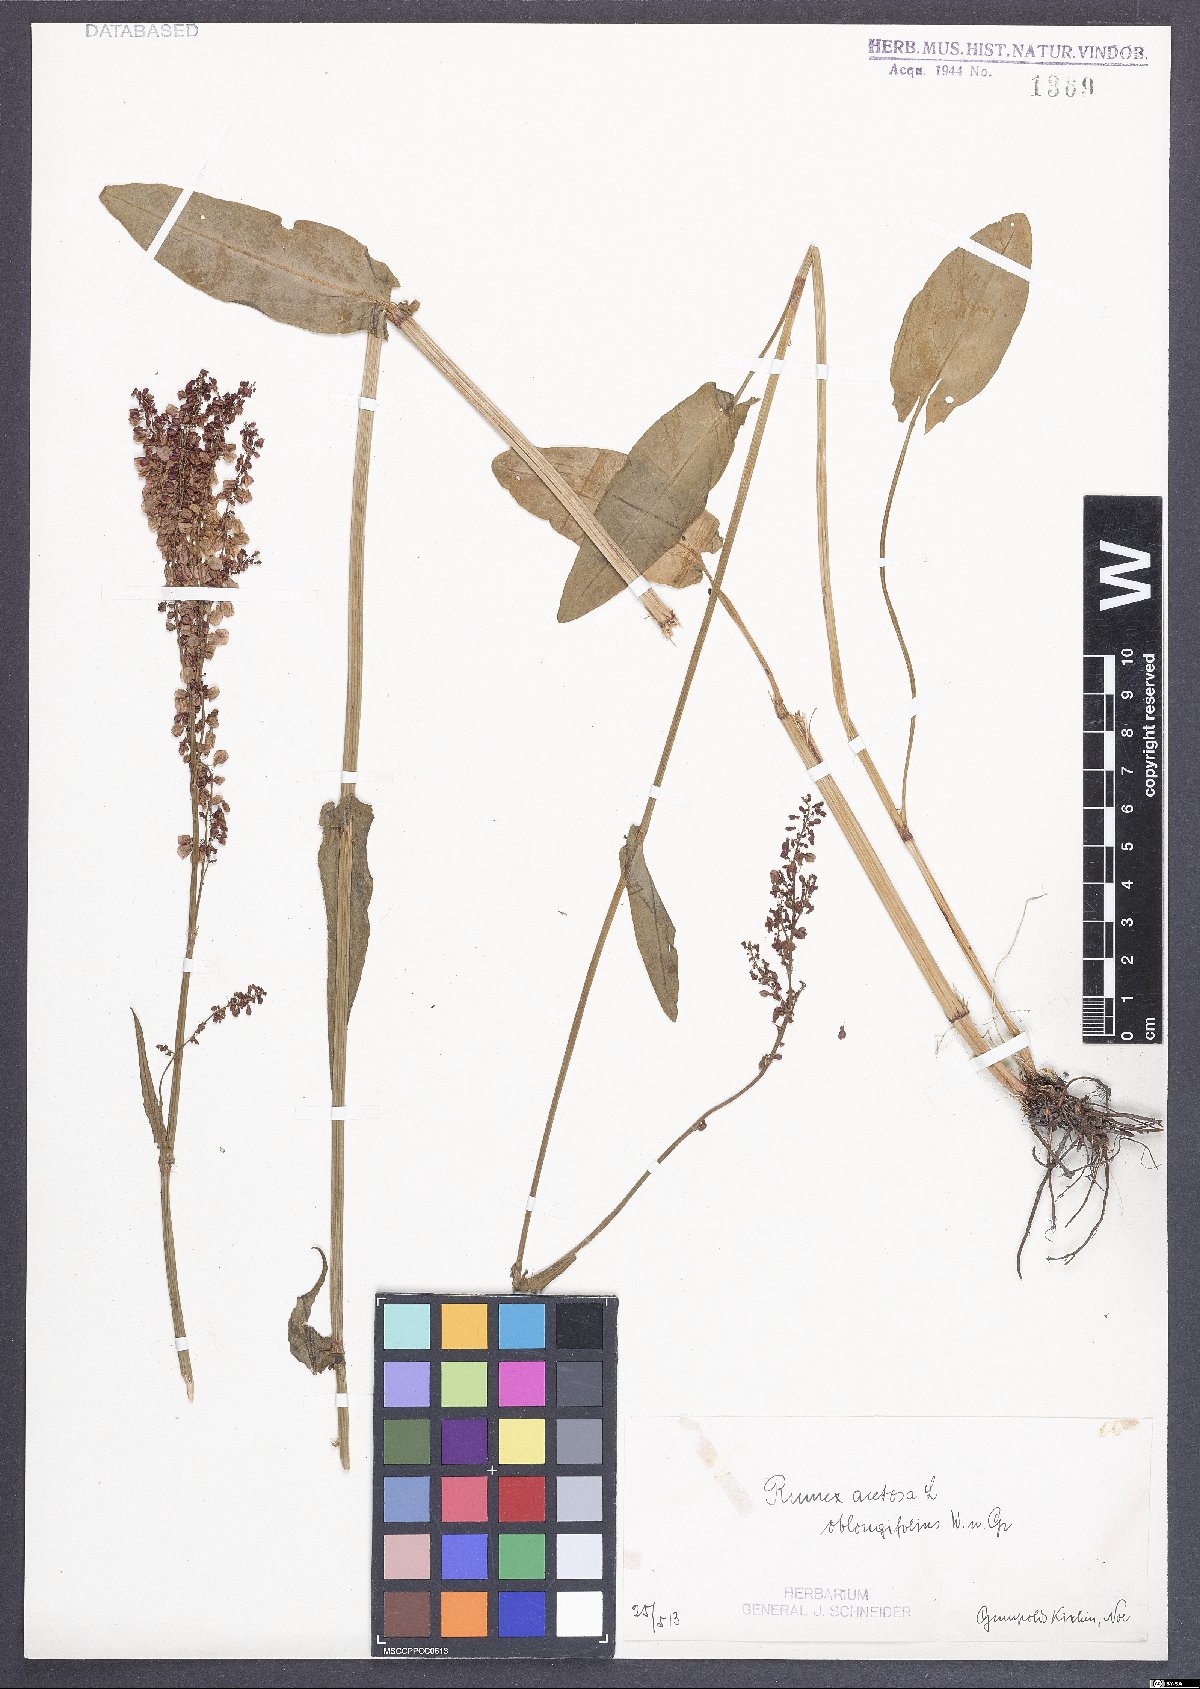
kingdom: Plantae
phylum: Tracheophyta
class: Magnoliopsida
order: Caryophyllales
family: Polygonaceae
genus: Rumex
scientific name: Rumex acetosa
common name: Garden sorrel
